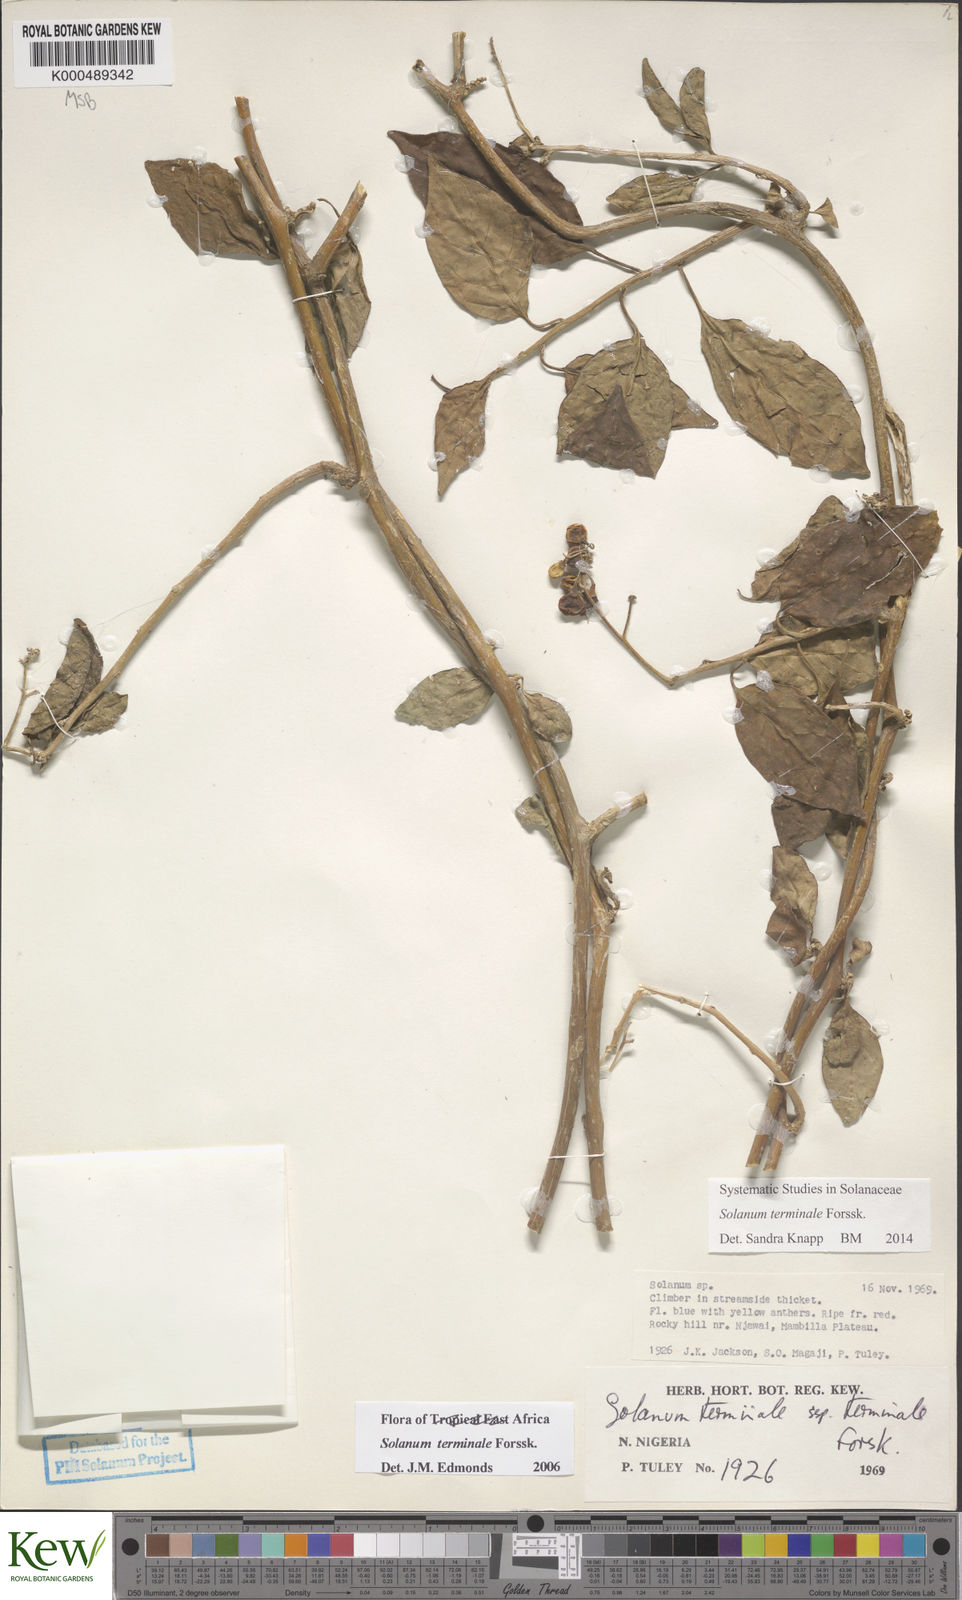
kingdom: Plantae
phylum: Tracheophyta
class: Magnoliopsida
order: Solanales
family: Solanaceae
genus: Solanum
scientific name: Solanum terminale
